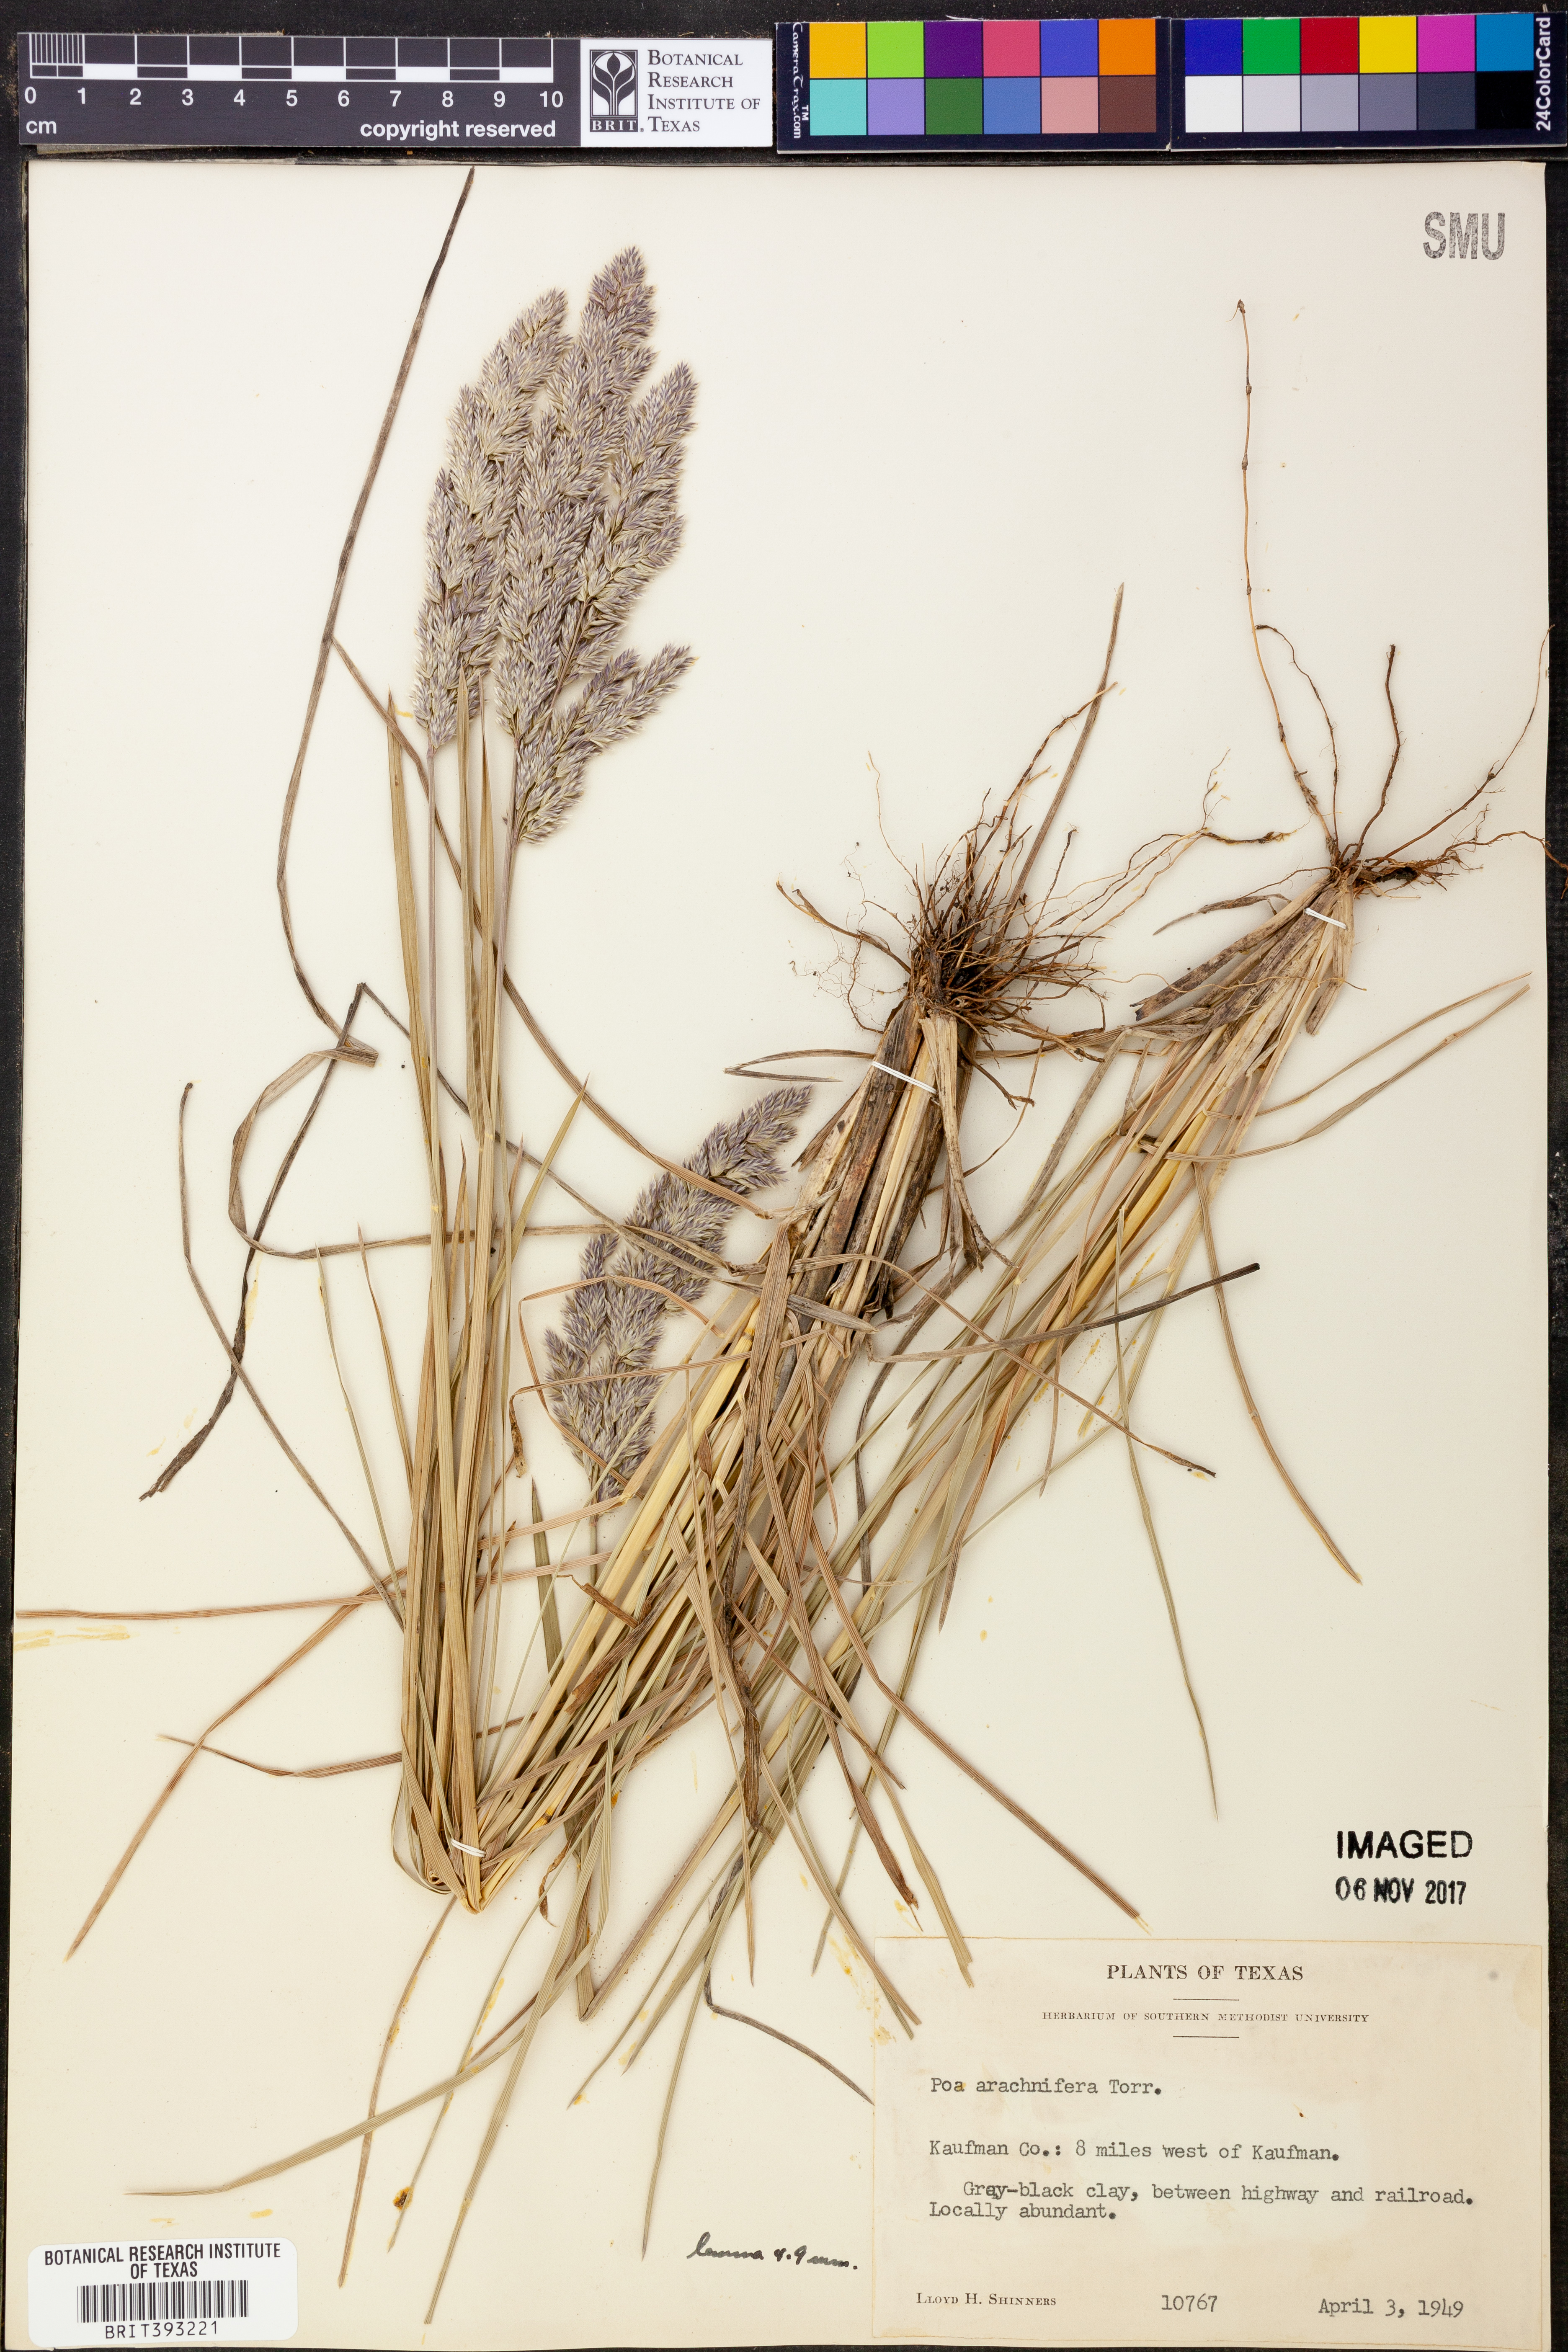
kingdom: Plantae
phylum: Tracheophyta
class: Liliopsida
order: Poales
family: Poaceae
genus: Poa
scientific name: Poa arachnifera
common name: Texas bluegrass
